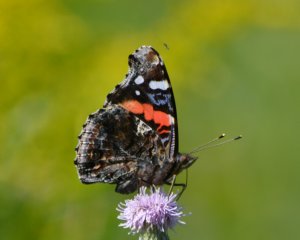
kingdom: Animalia
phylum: Arthropoda
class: Insecta
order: Lepidoptera
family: Nymphalidae
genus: Vanessa
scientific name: Vanessa atalanta
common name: Red Admiral
